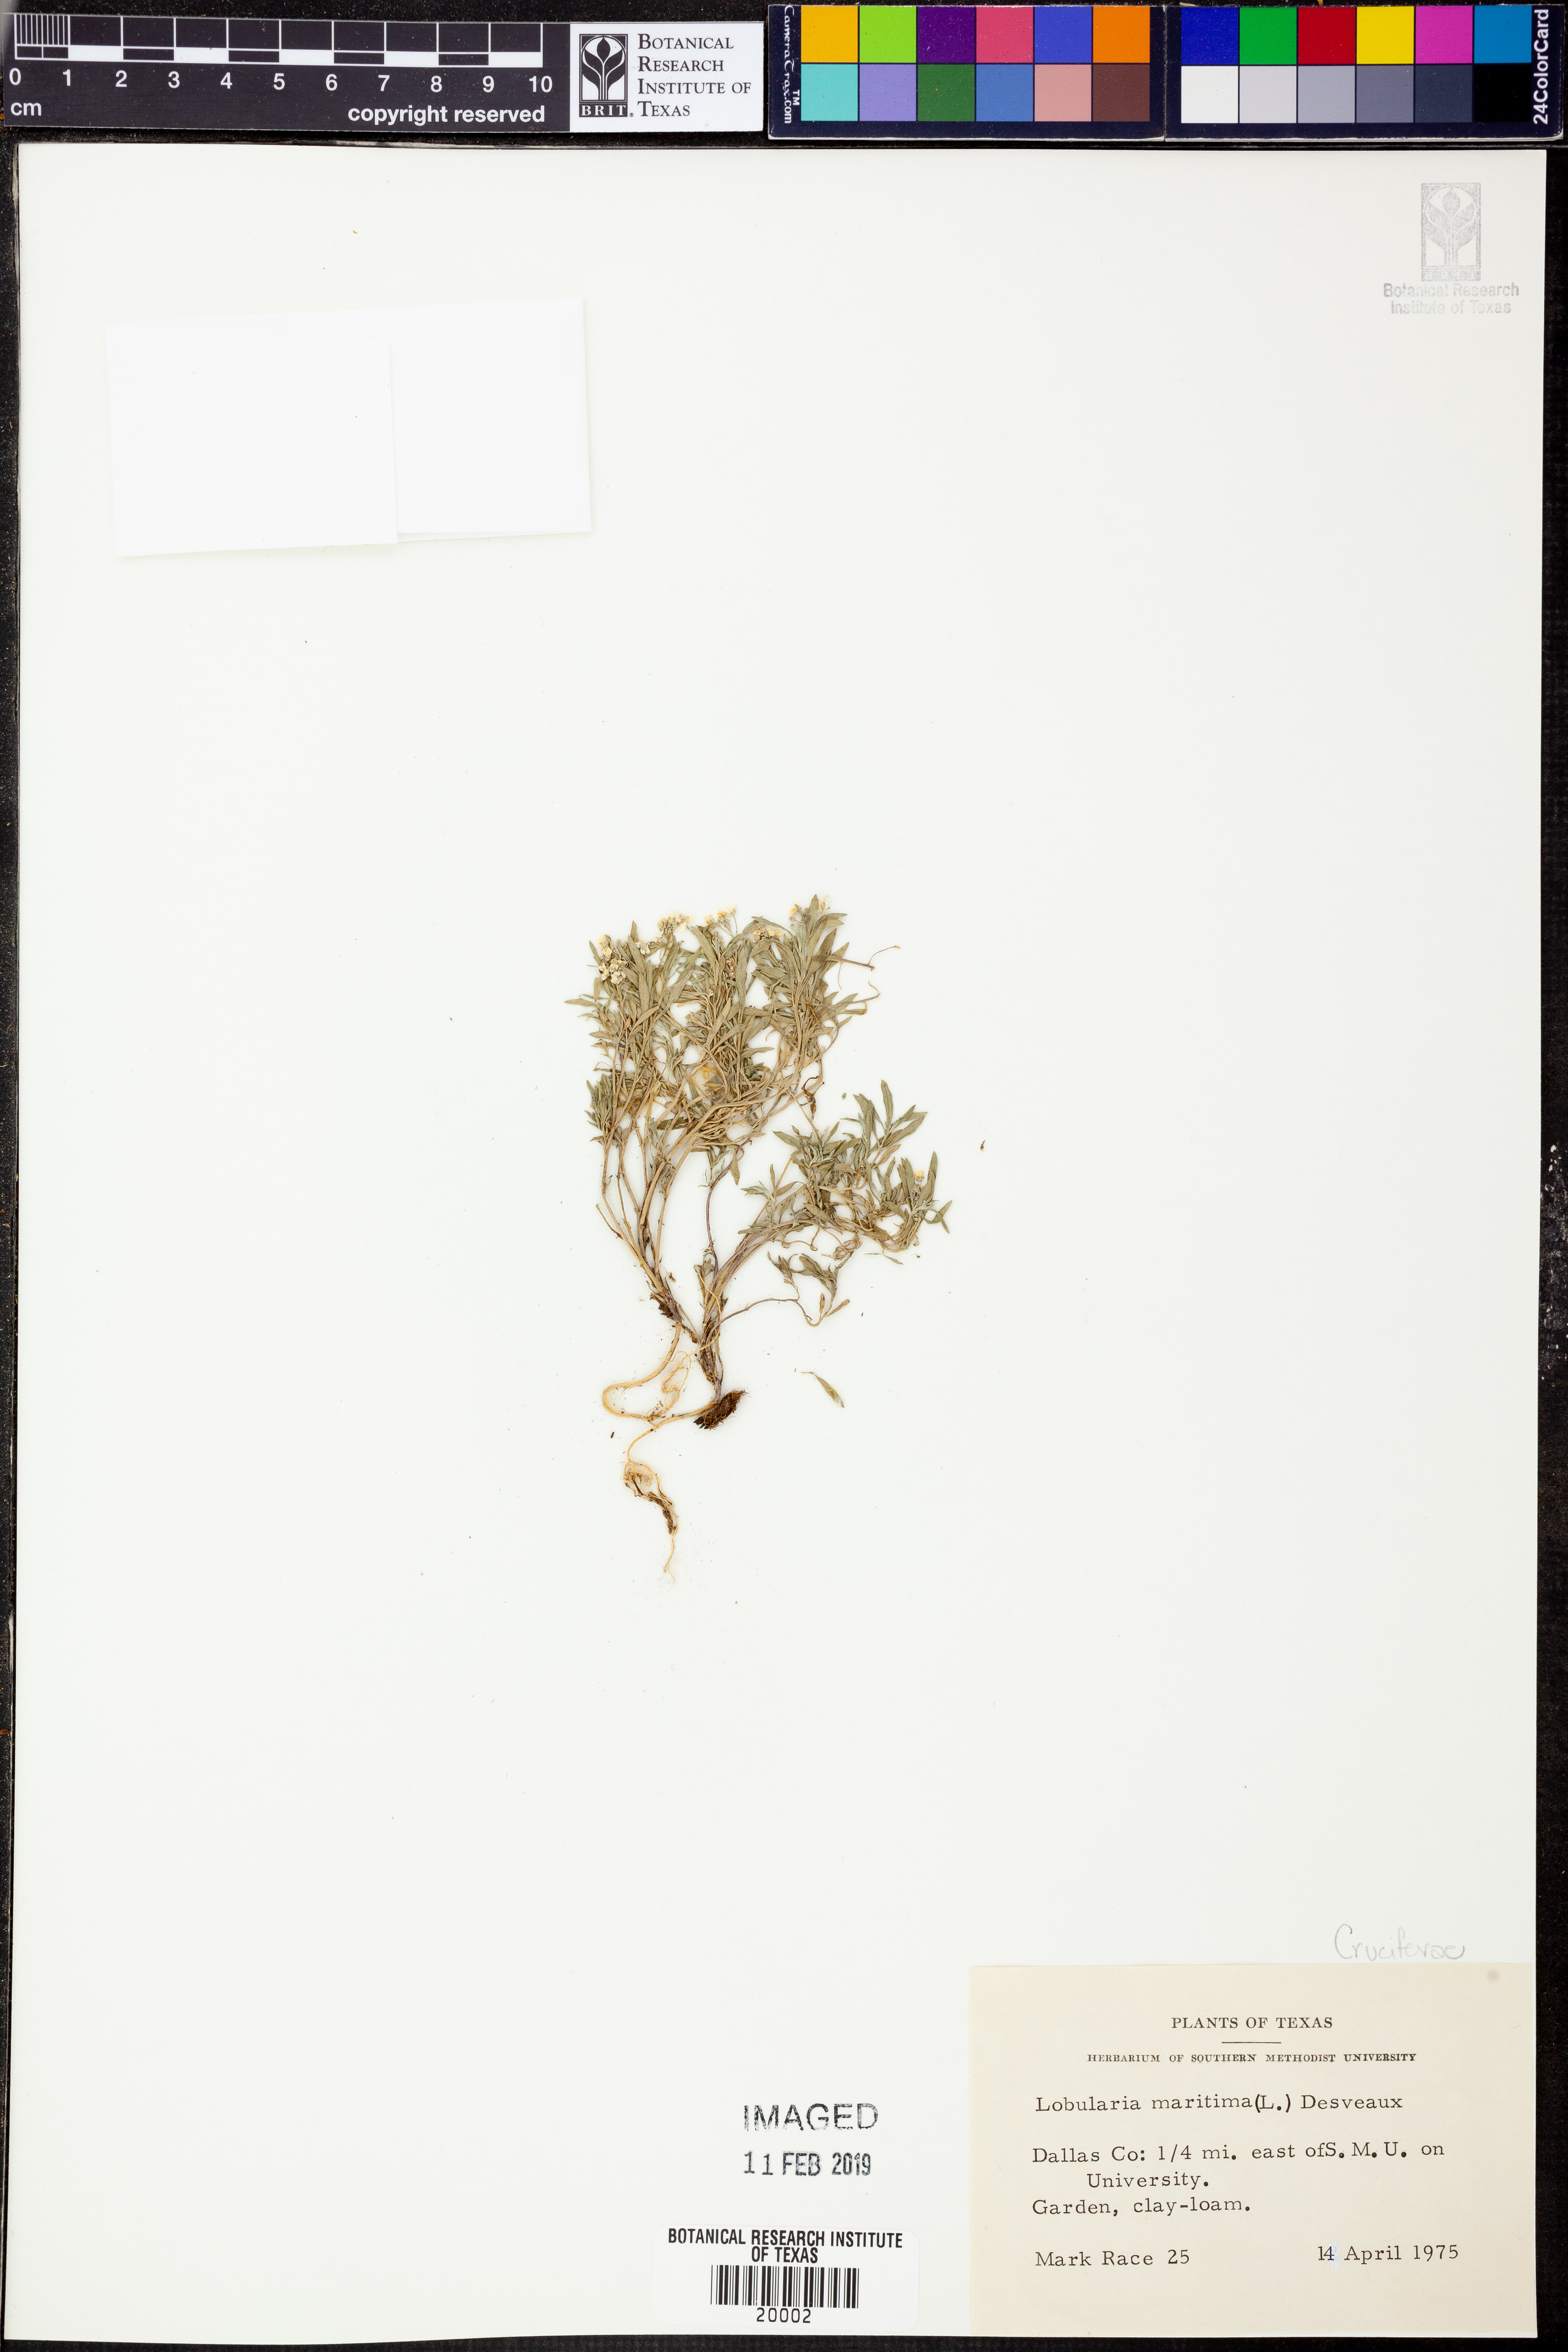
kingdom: Plantae
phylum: Tracheophyta
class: Magnoliopsida
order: Brassicales
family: Brassicaceae
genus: Lobularia
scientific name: Lobularia maritima
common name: Sweet alison
